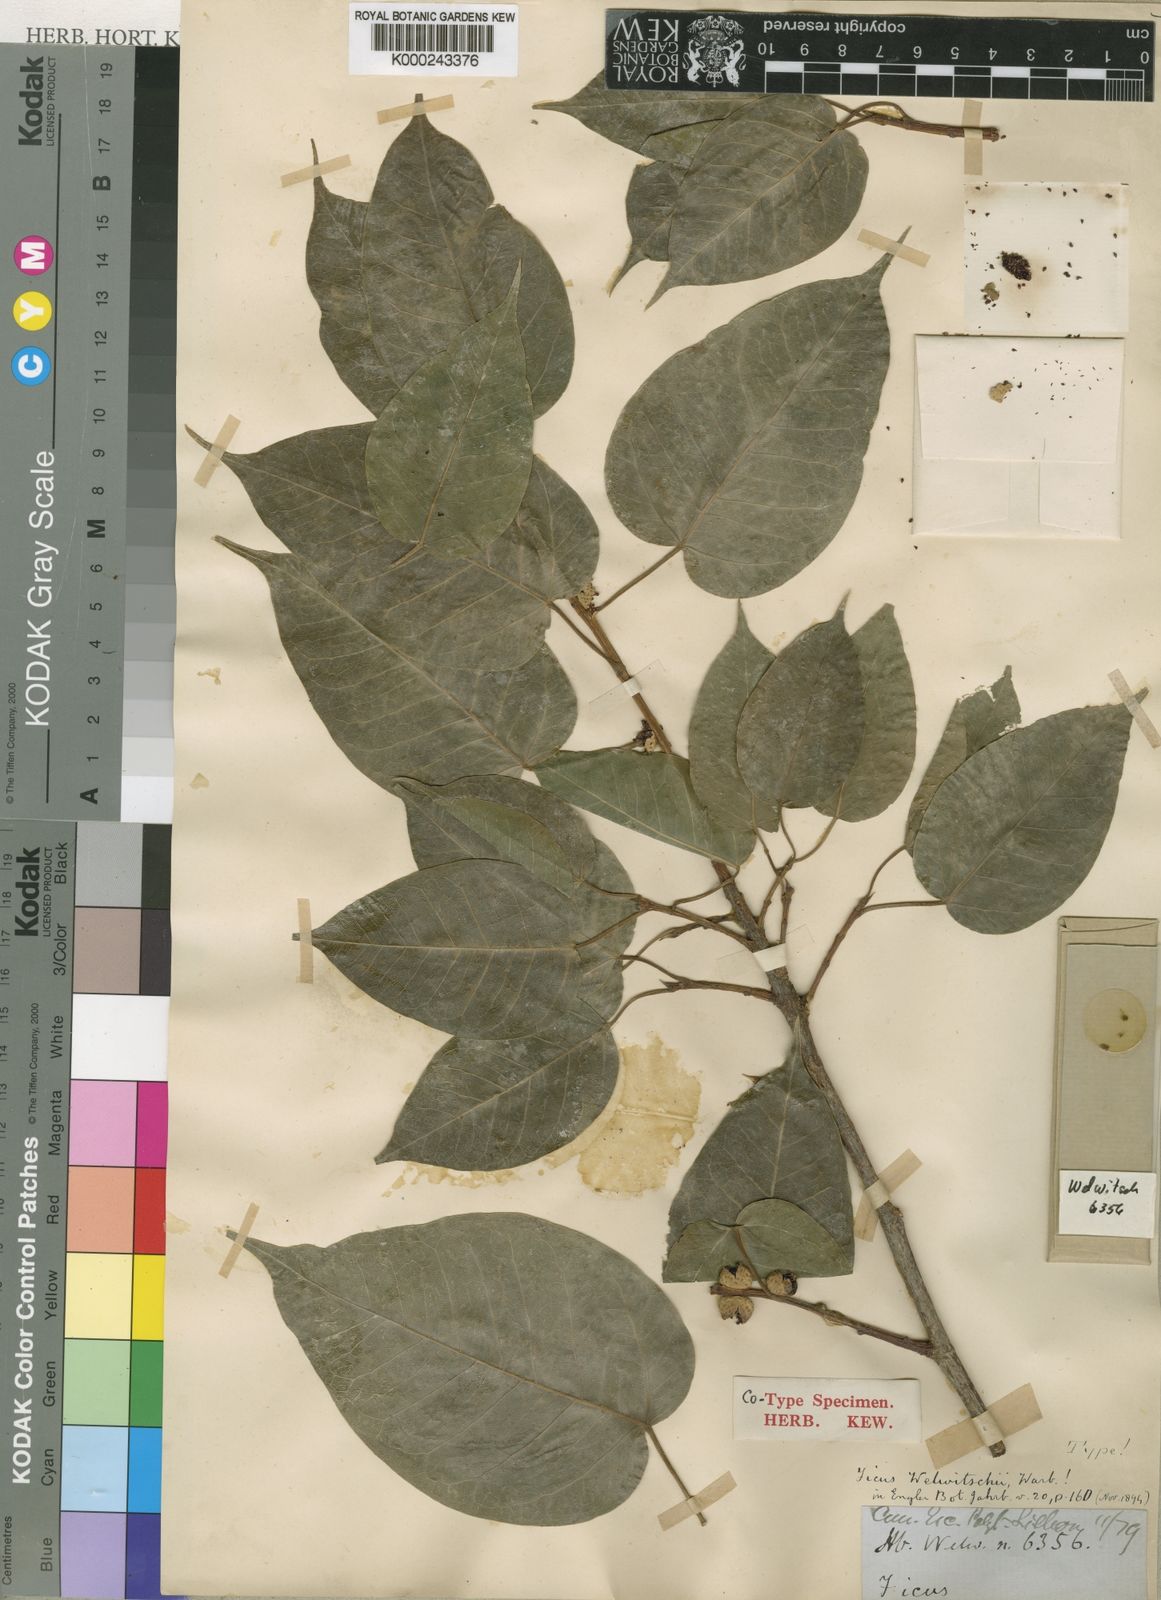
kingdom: Plantae
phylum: Tracheophyta
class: Magnoliopsida
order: Rosales
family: Moraceae
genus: Ficus
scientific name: Ficus cordata
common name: Namaqua rock fig
